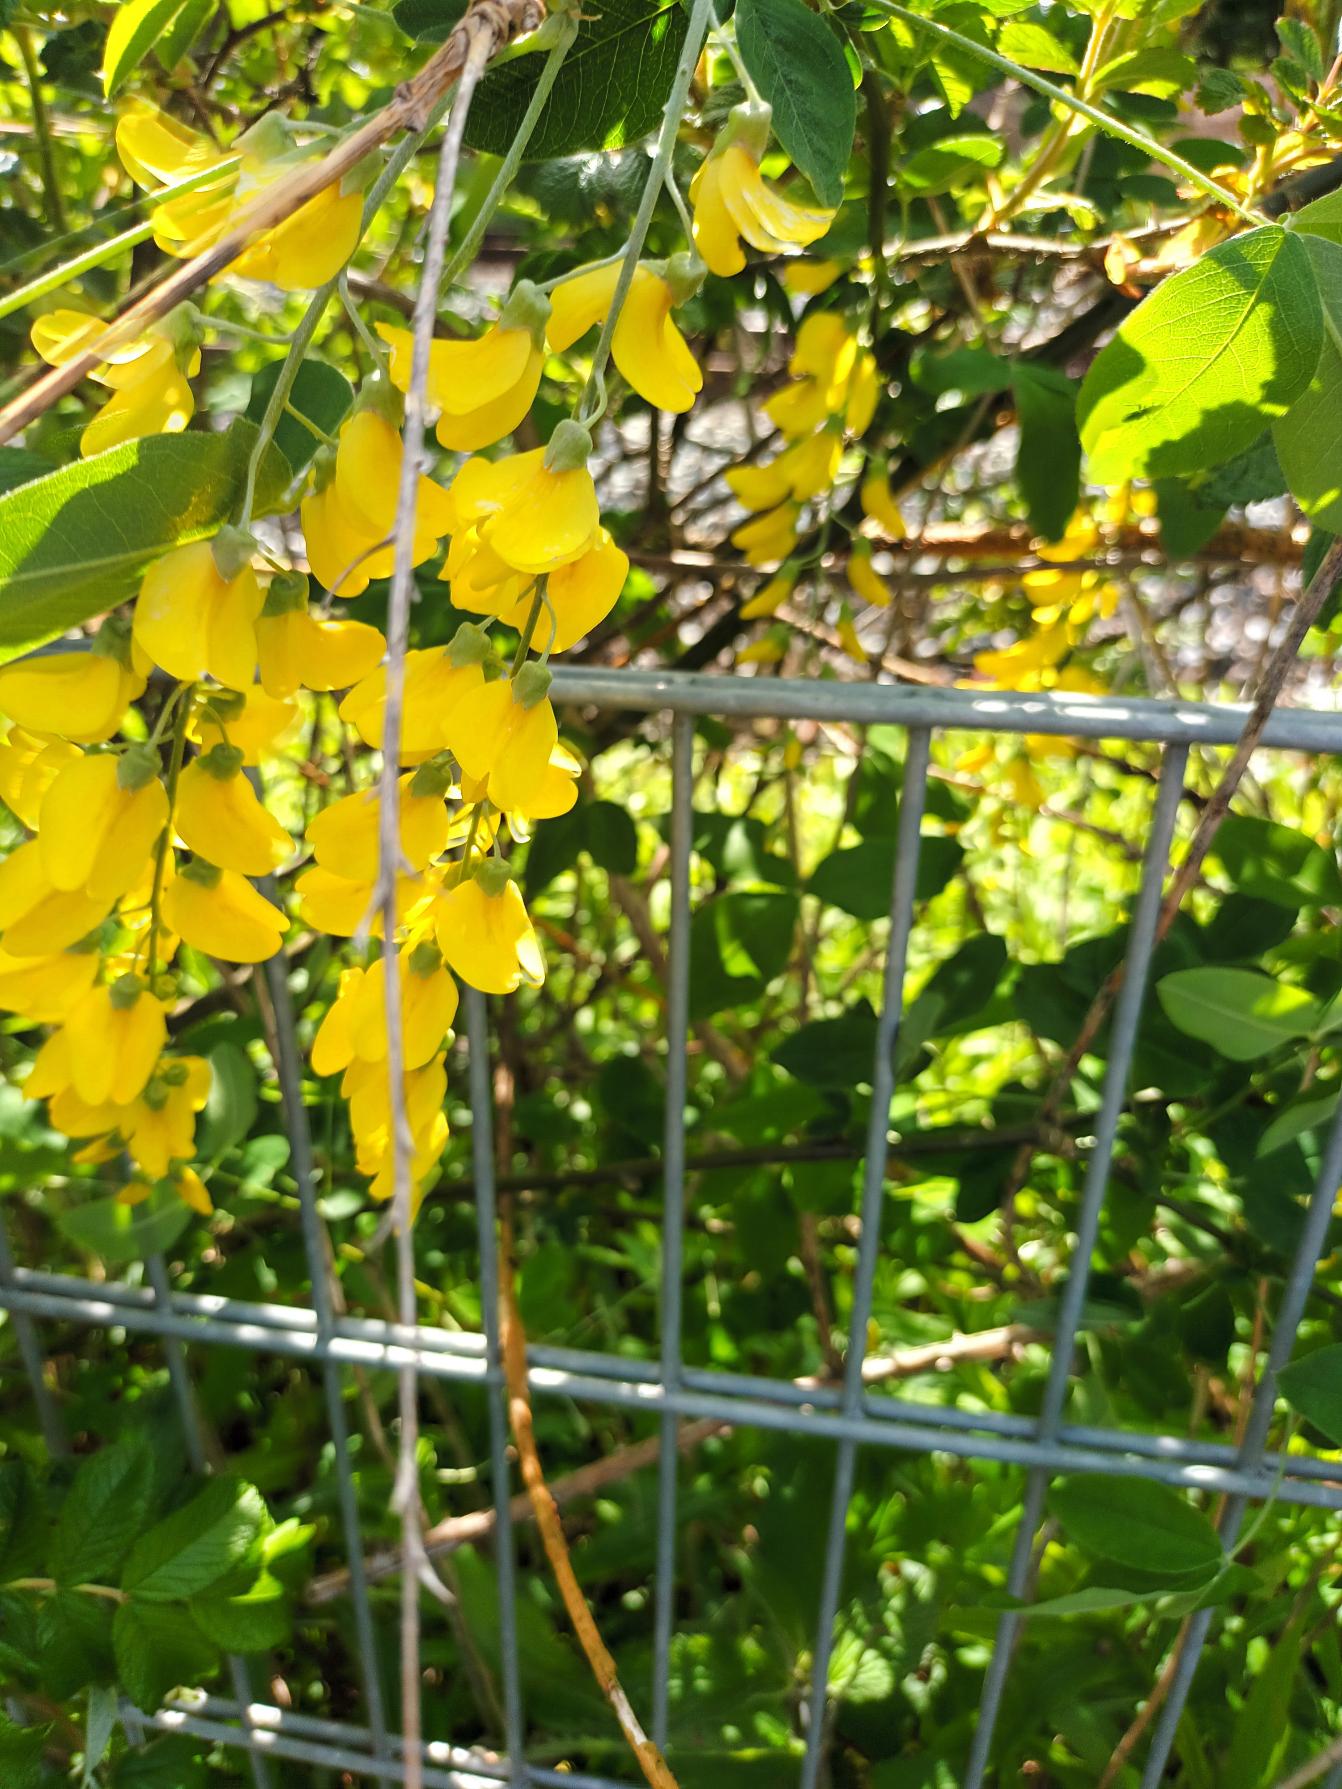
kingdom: Plantae
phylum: Tracheophyta
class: Magnoliopsida
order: Fabales
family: Fabaceae
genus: Laburnum
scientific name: Laburnum anagyroides
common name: Guldregn
